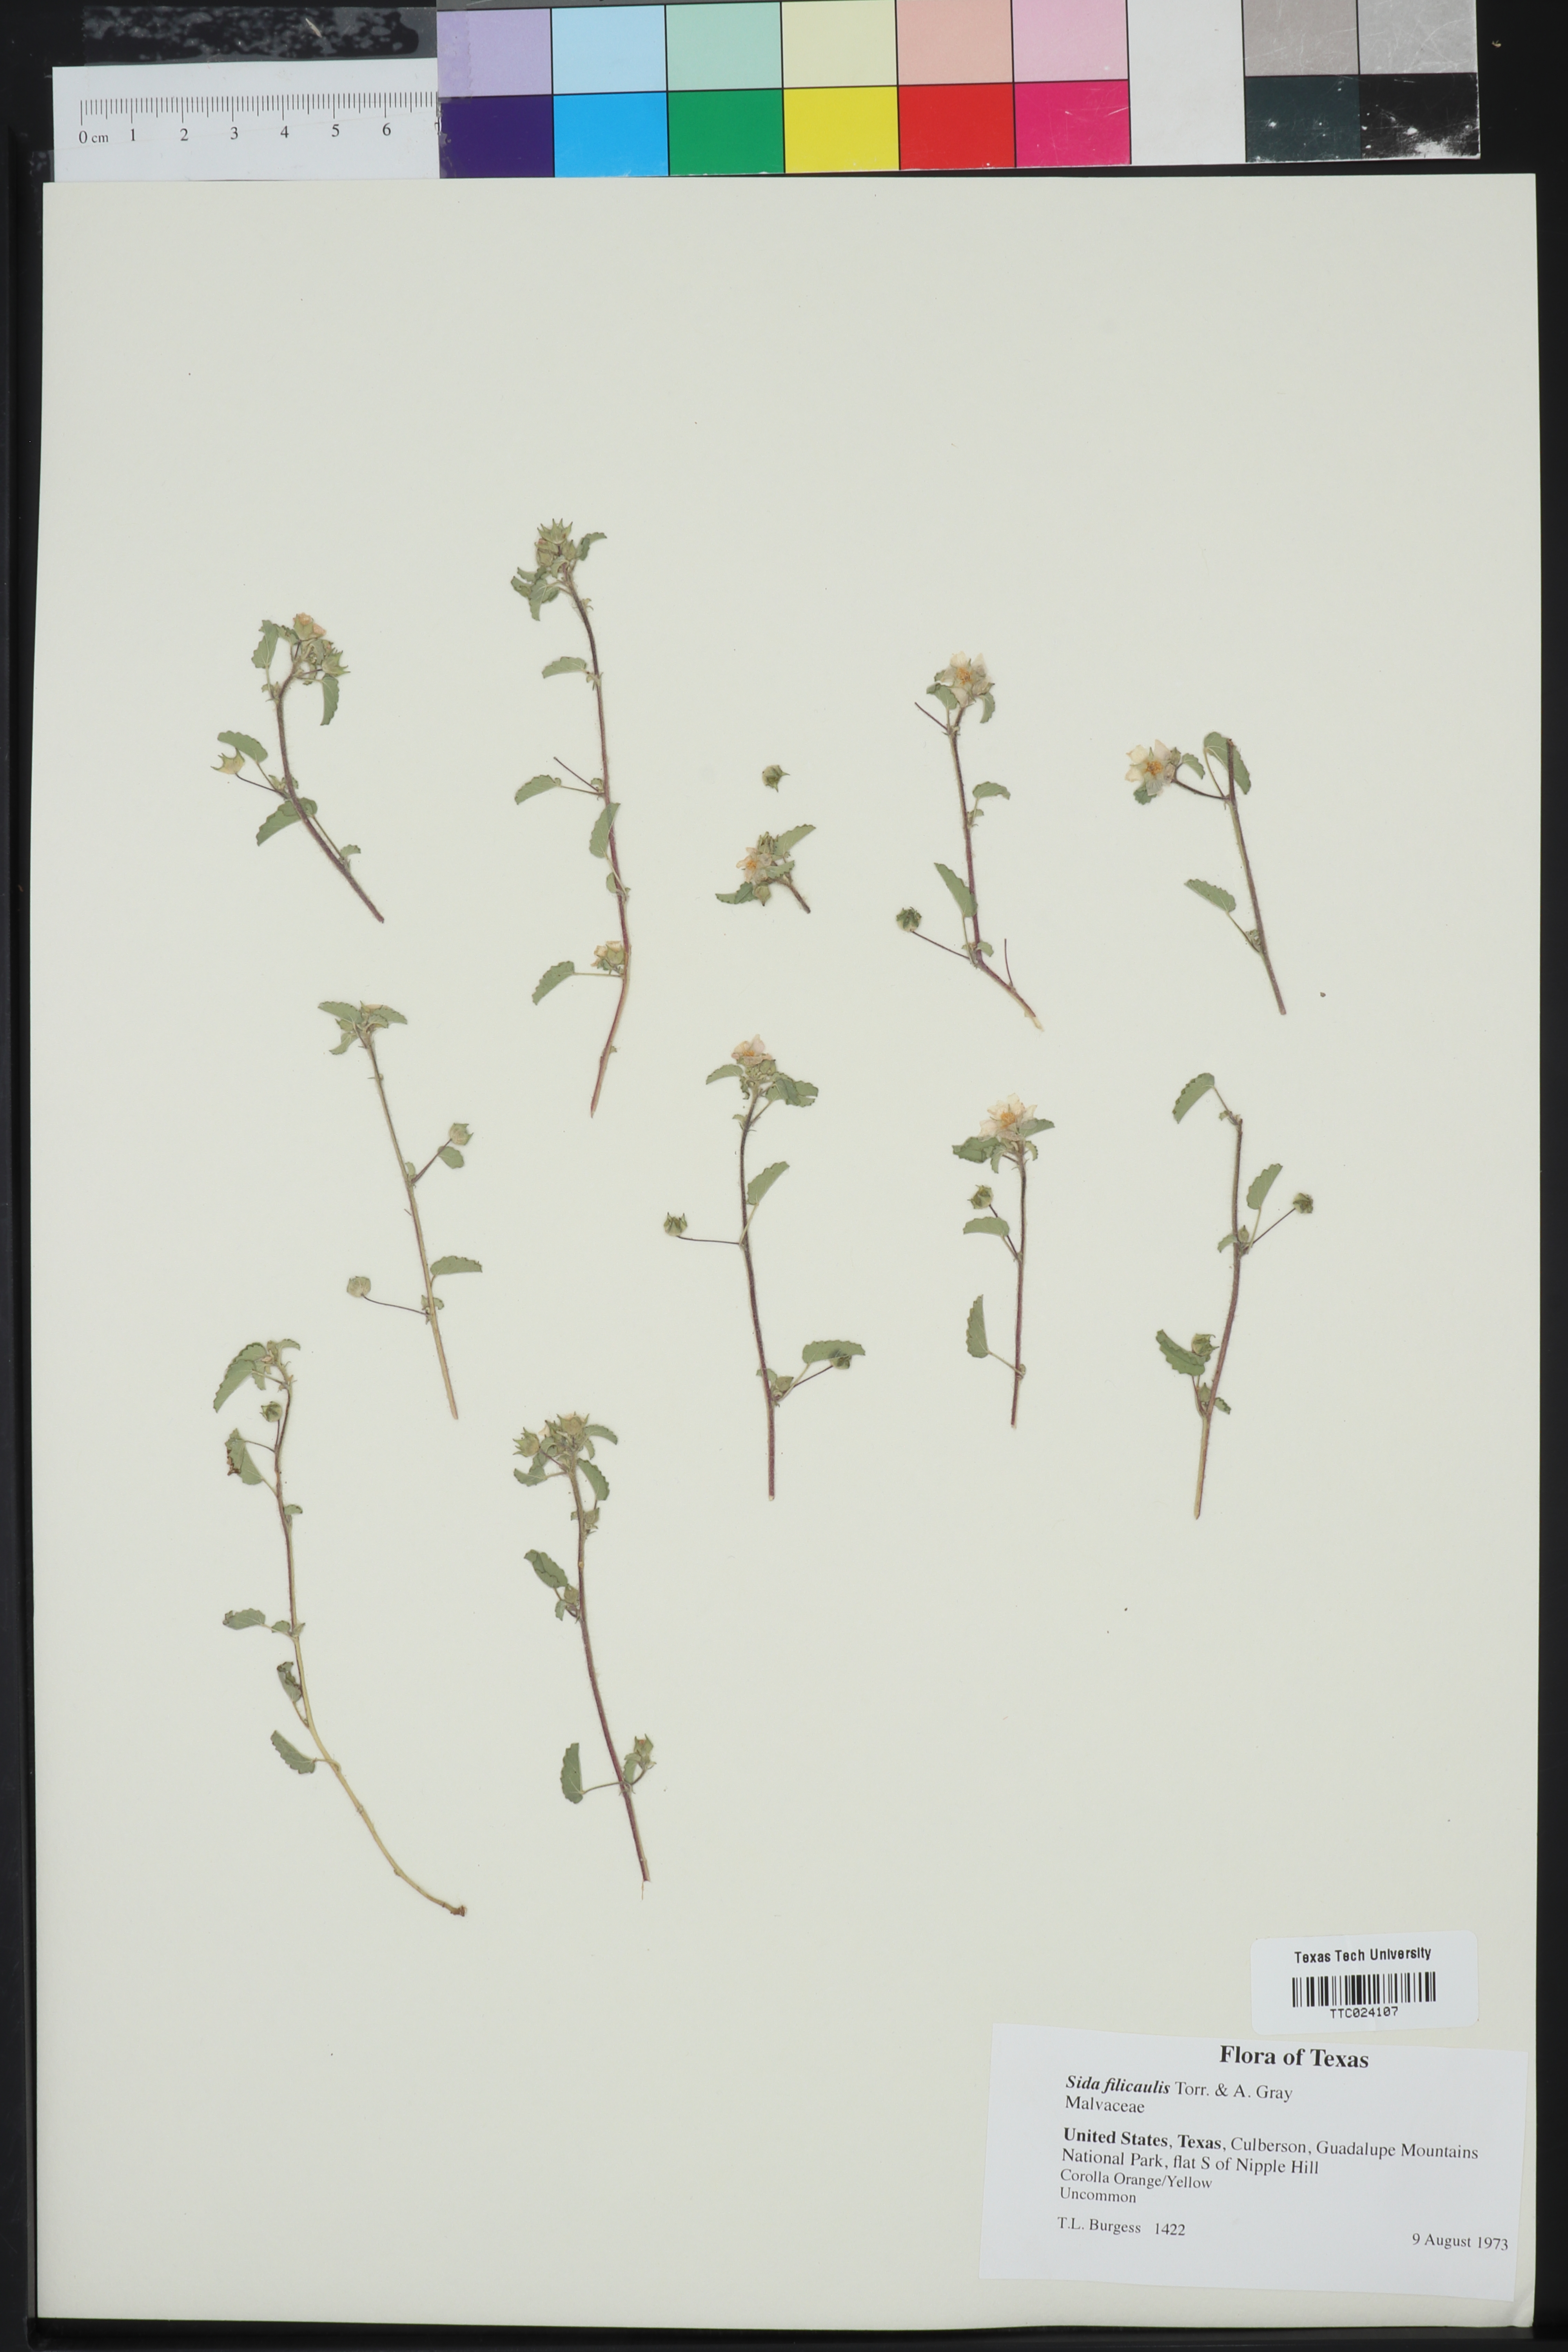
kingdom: Plantae
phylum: Tracheophyta
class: Magnoliopsida
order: Malvales
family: Malvaceae
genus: Sida
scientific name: Sida abutilifolia
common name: Spreading fanpetals
